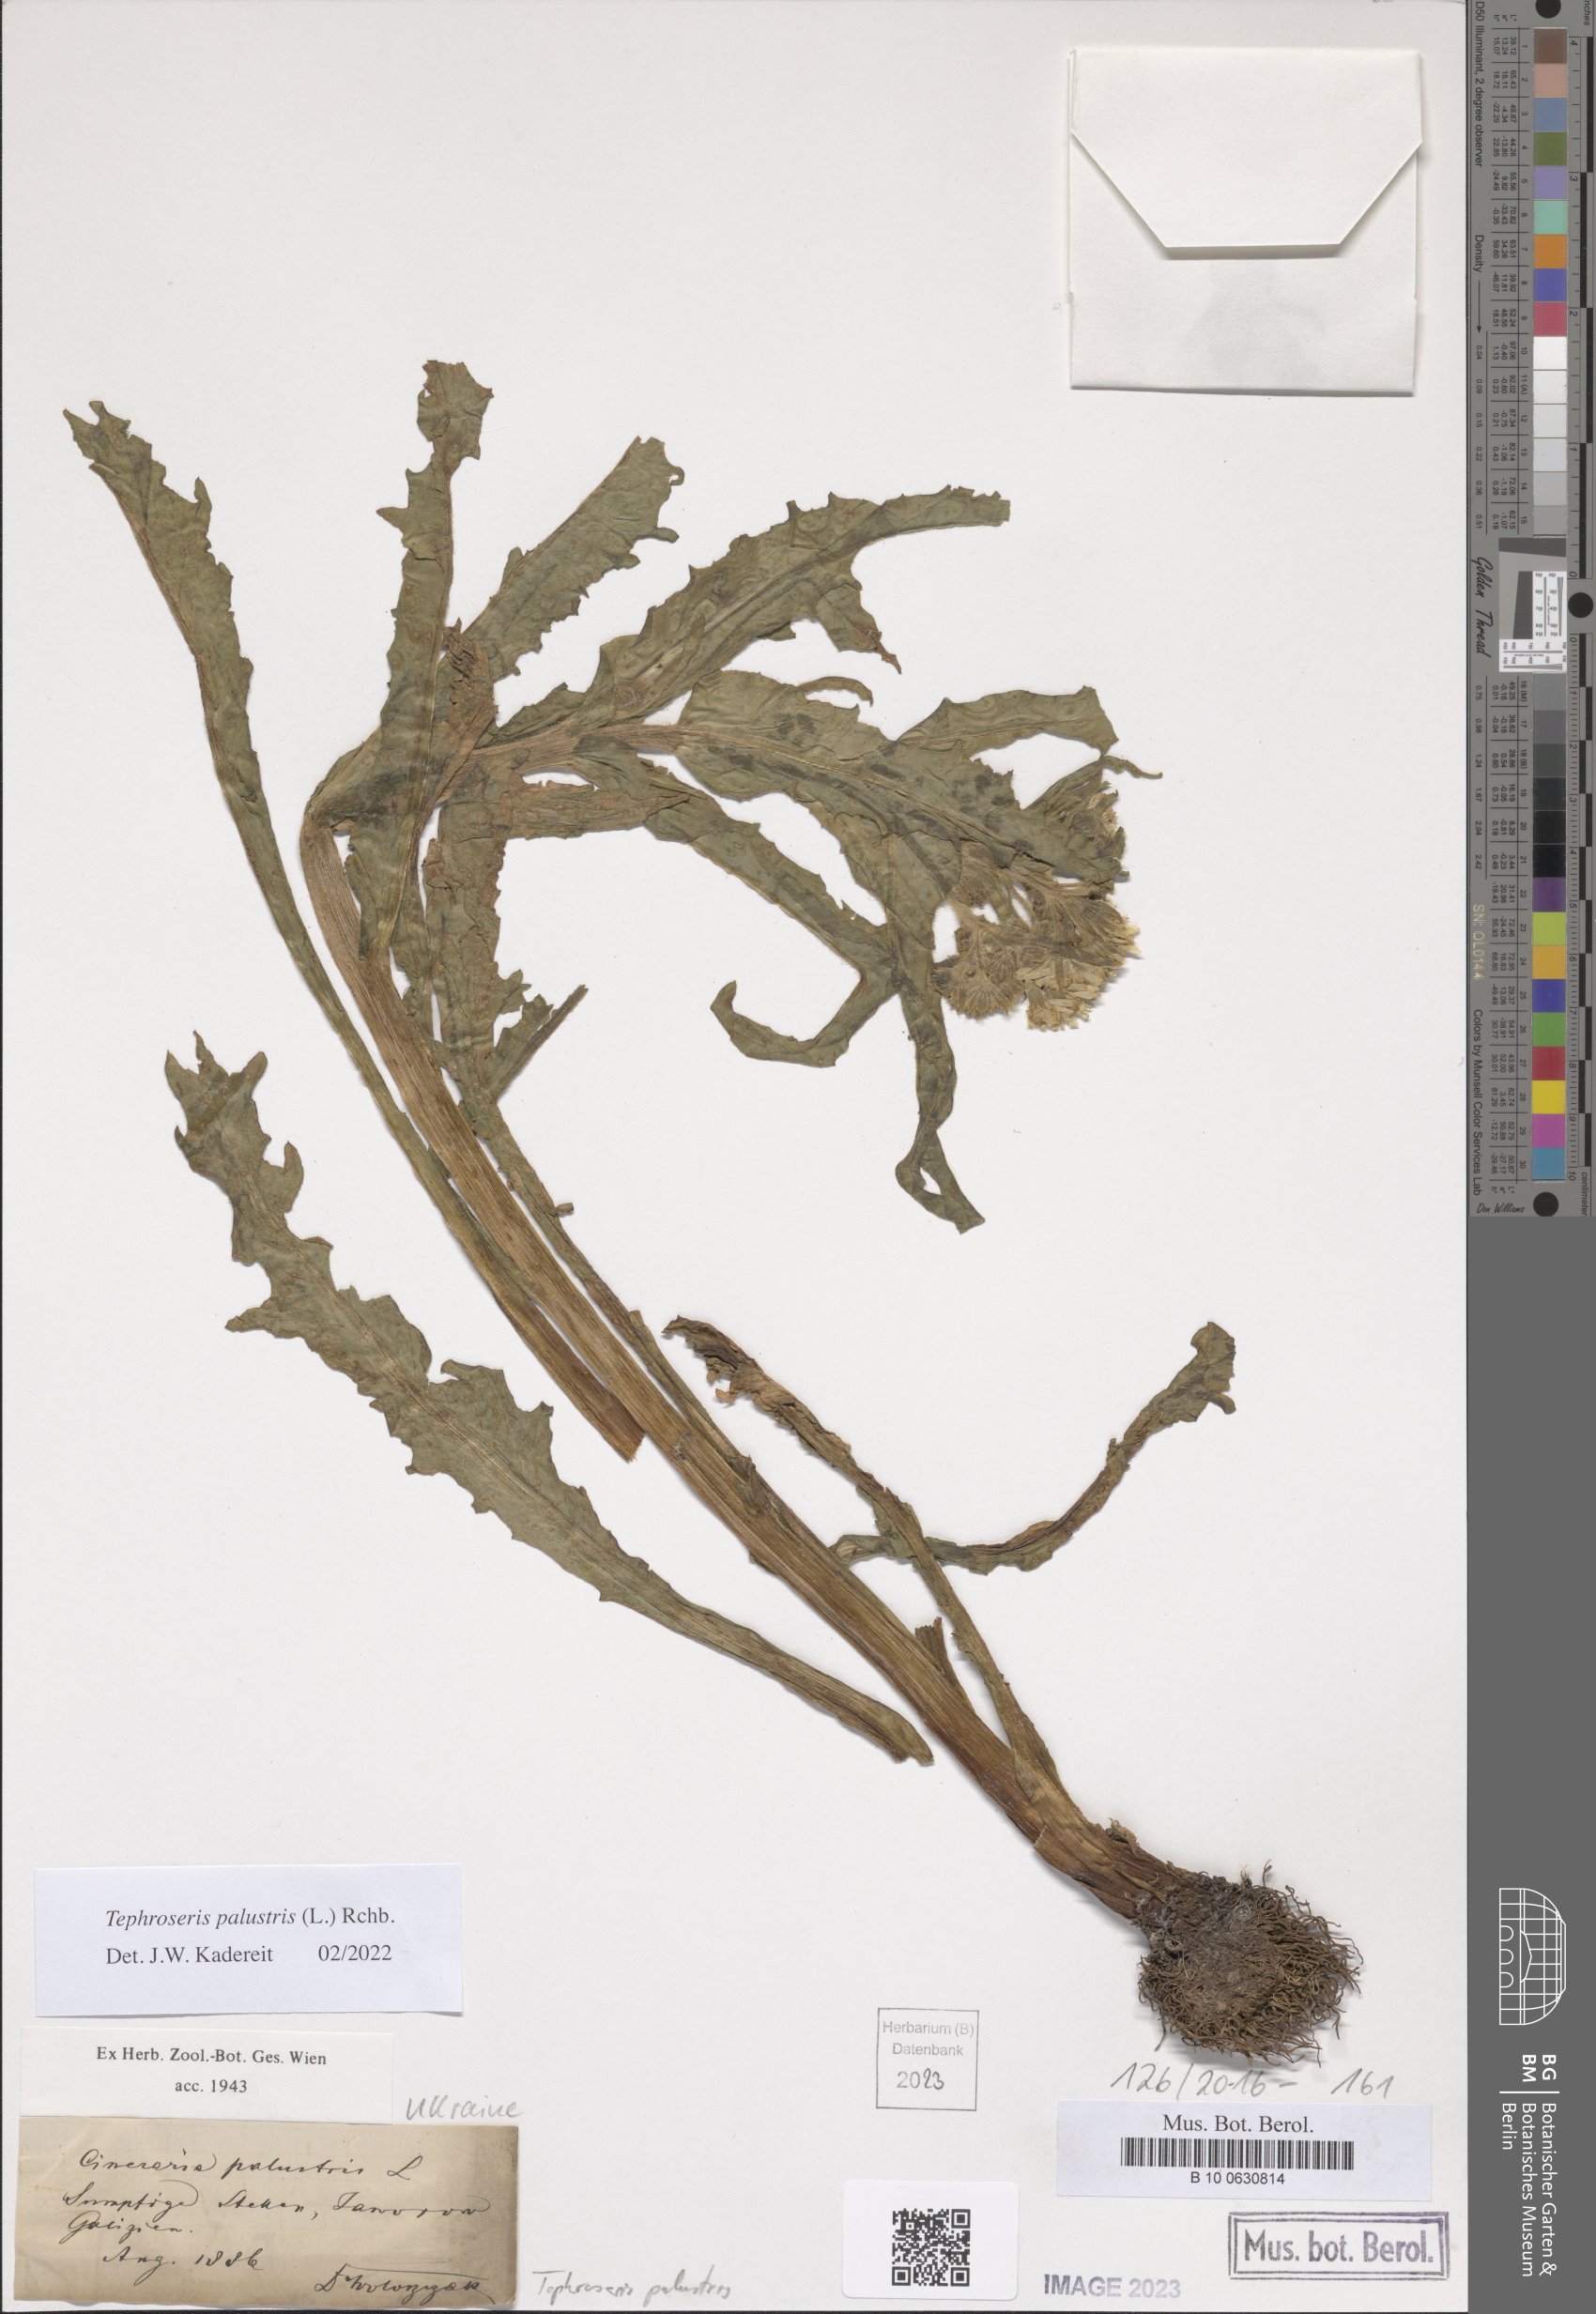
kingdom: Plantae
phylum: Tracheophyta
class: Magnoliopsida
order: Asterales
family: Asteraceae
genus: Tephroseris
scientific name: Tephroseris palustris
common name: Marsh fleawort
